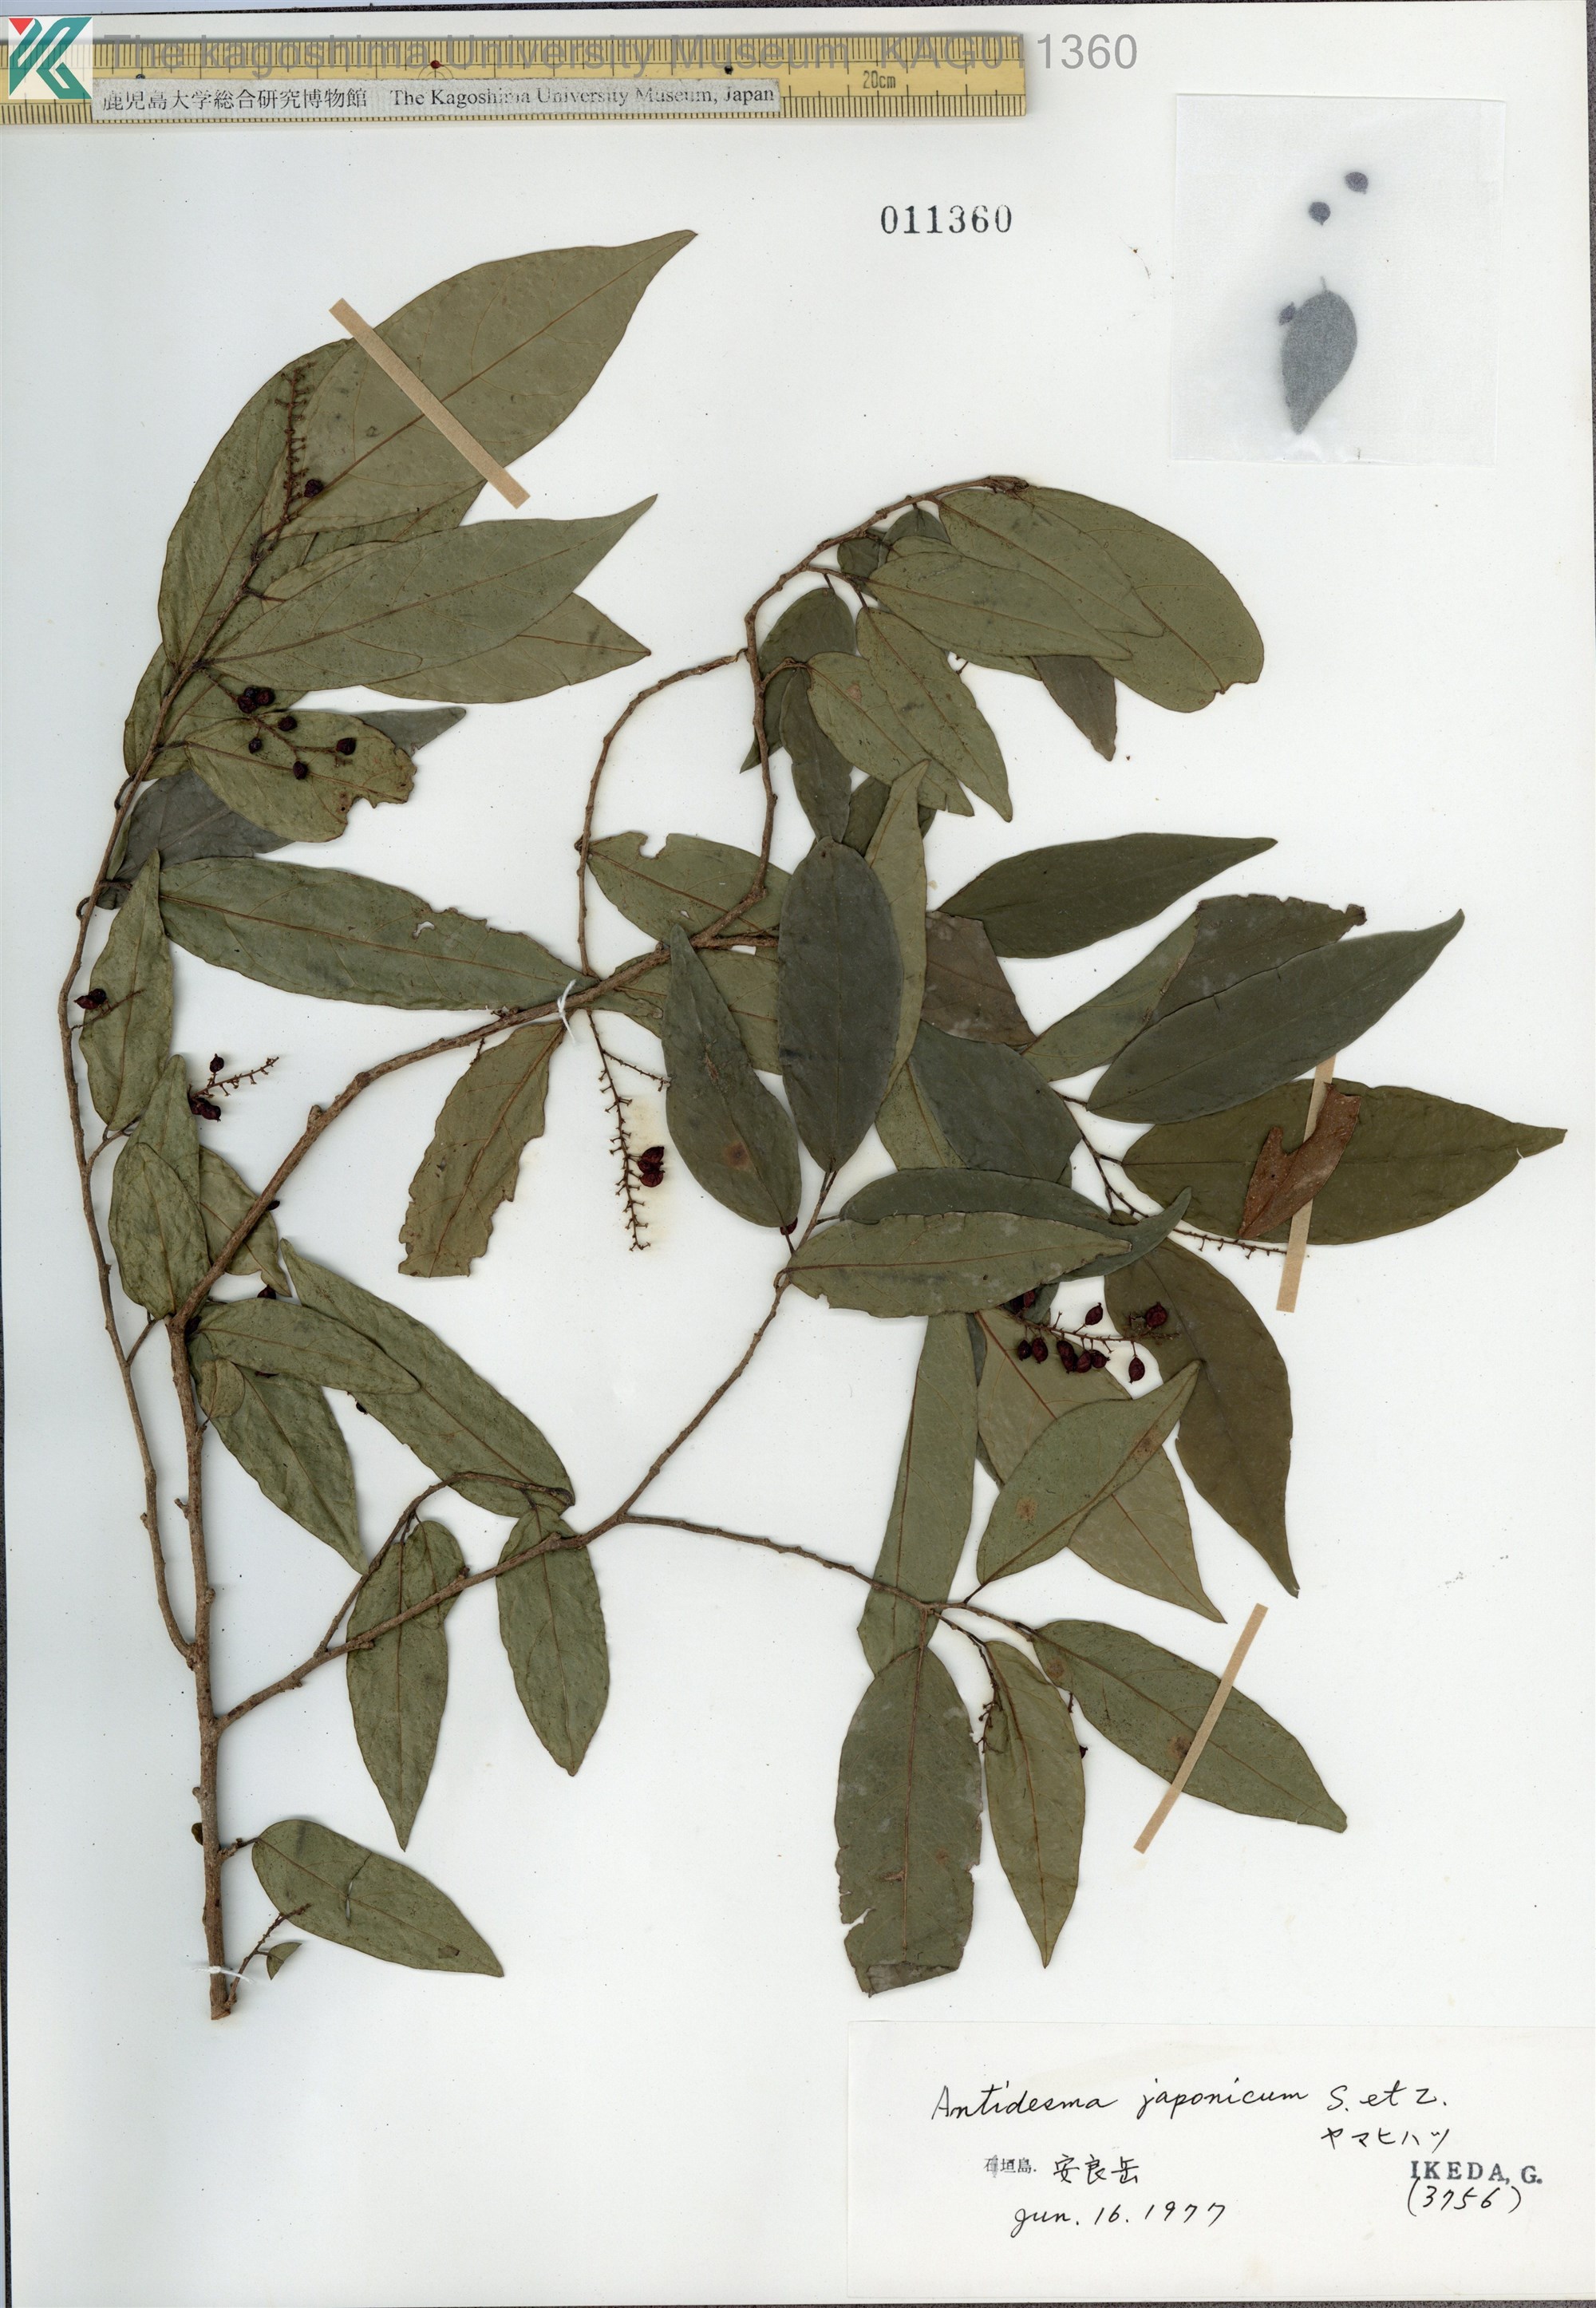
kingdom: Plantae
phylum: Tracheophyta
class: Magnoliopsida
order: Malpighiales
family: Phyllanthaceae
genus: Antidesma
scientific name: Antidesma japonicum
